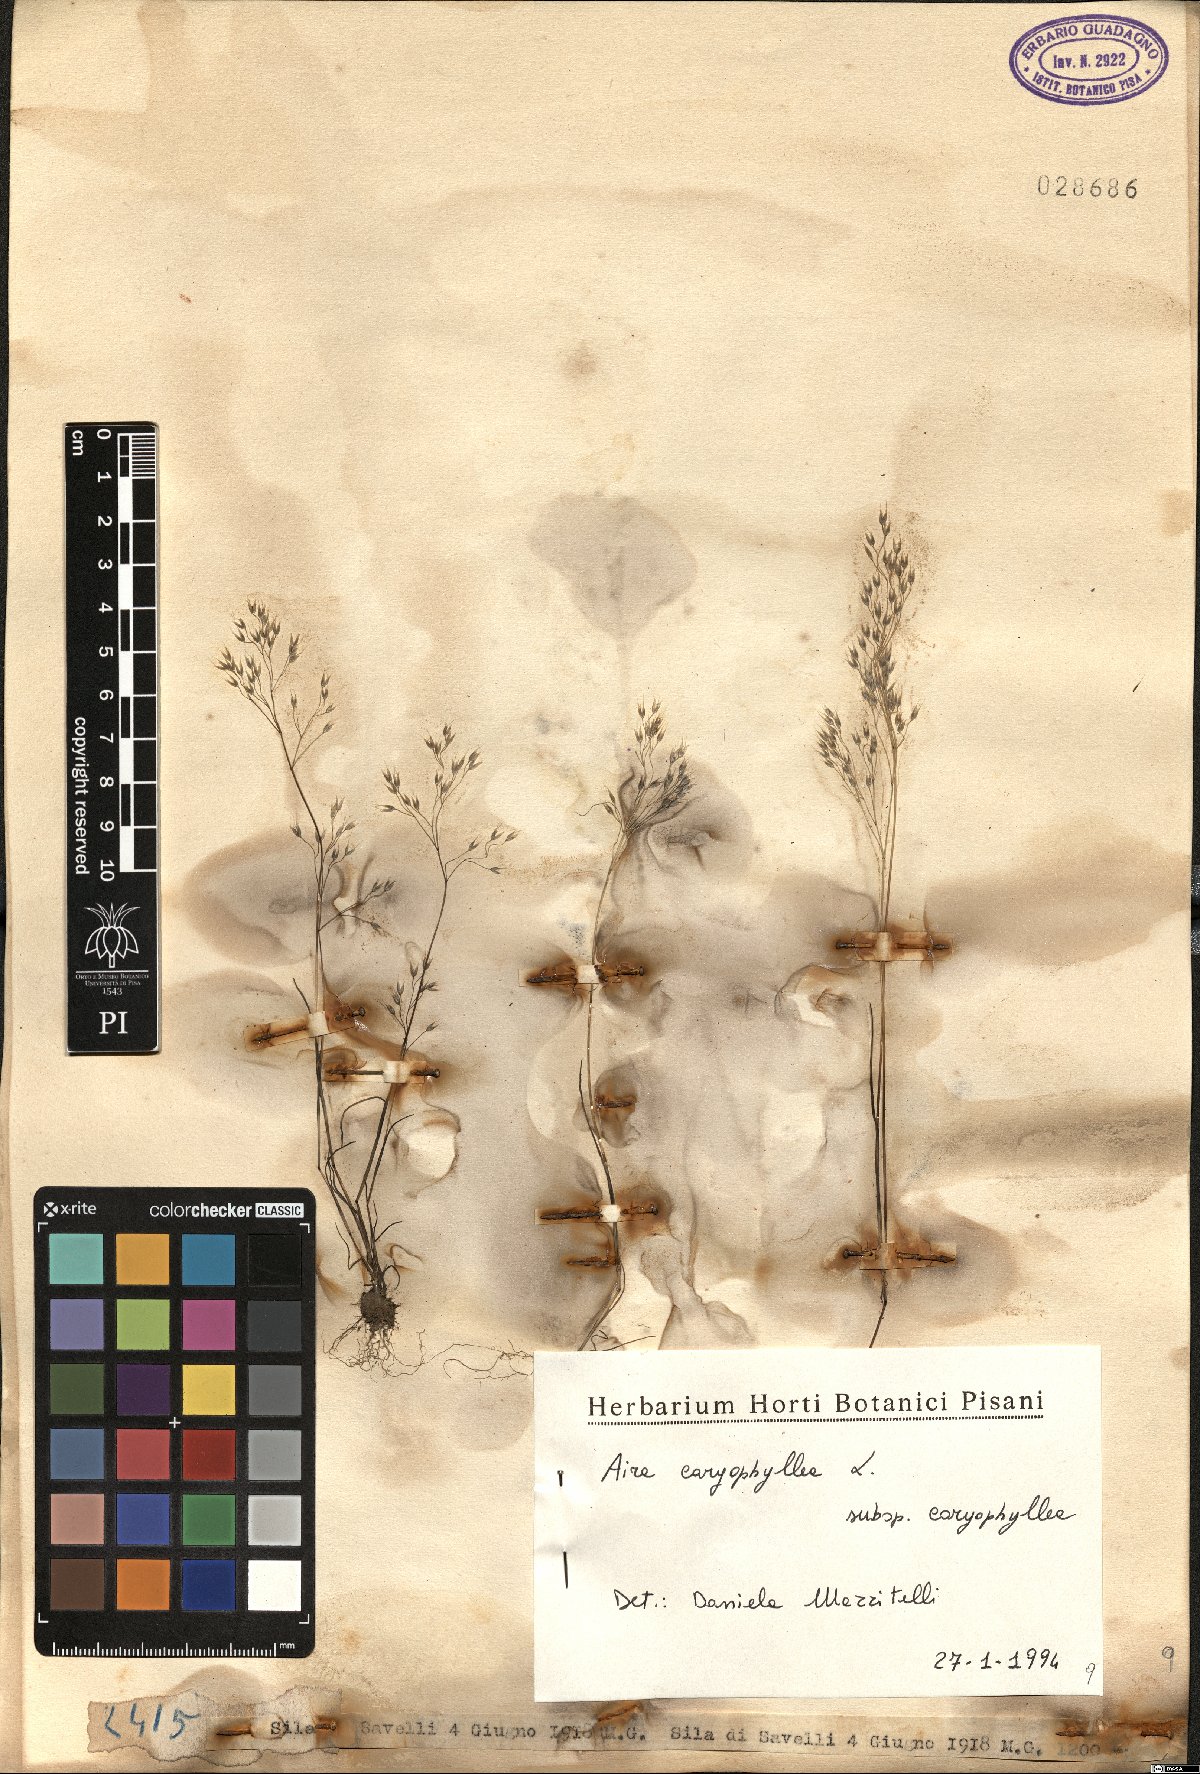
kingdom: Plantae
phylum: Tracheophyta
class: Liliopsida
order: Poales
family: Poaceae
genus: Aira
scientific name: Aira caryophyllea
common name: Silver hairgrass
